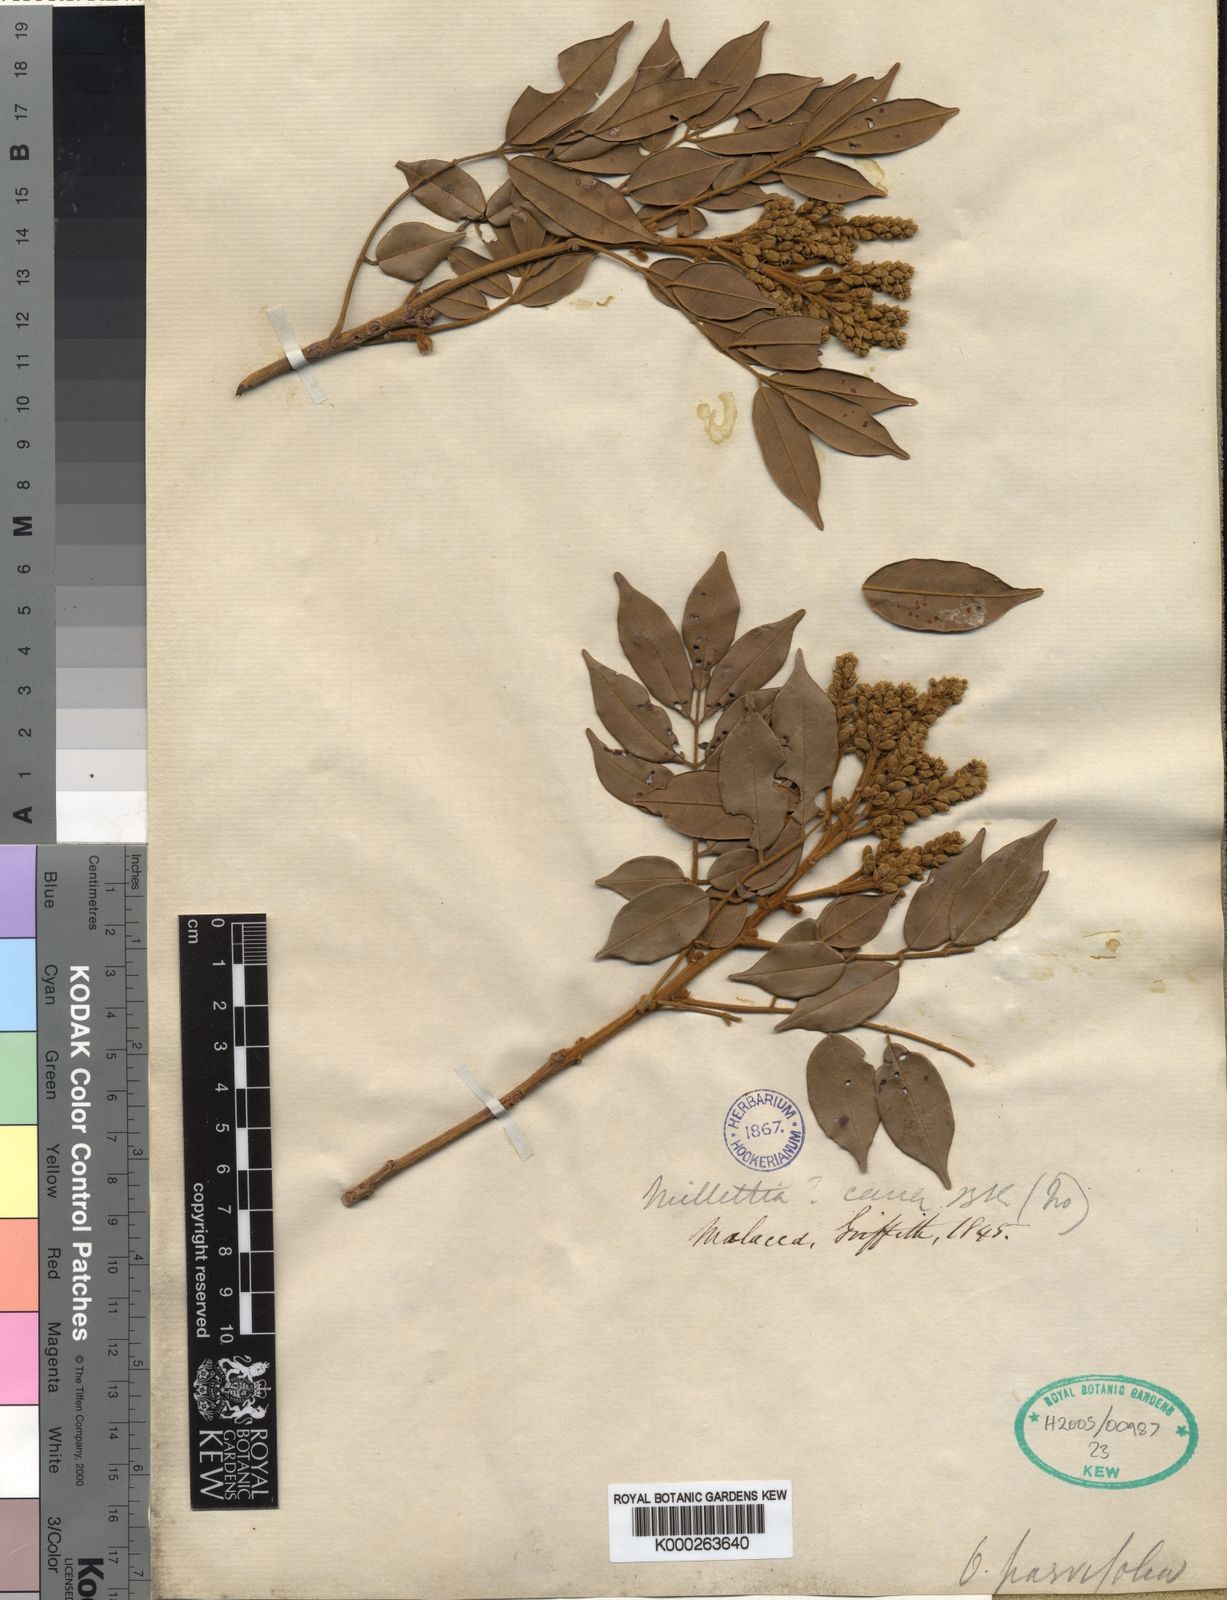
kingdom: Plantae
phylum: Tracheophyta
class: Magnoliopsida
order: Fabales
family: Fabaceae
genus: Ormosia
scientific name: Ormosia
